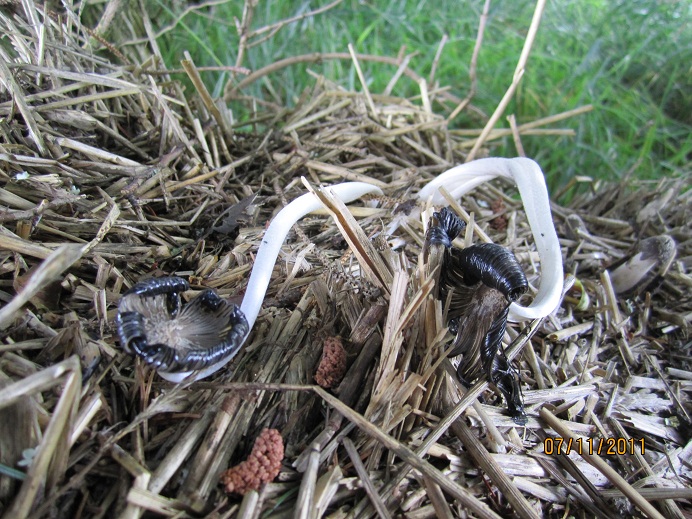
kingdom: Fungi
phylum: Basidiomycota
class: Agaricomycetes
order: Agaricales
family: Psathyrellaceae
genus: Coprinopsis
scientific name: Coprinopsis macrocephala
